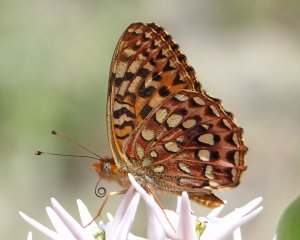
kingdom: Animalia
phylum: Arthropoda
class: Insecta
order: Lepidoptera
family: Nymphalidae
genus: Speyeria
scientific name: Speyeria hydaspe
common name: Hydaspe Fritillary
